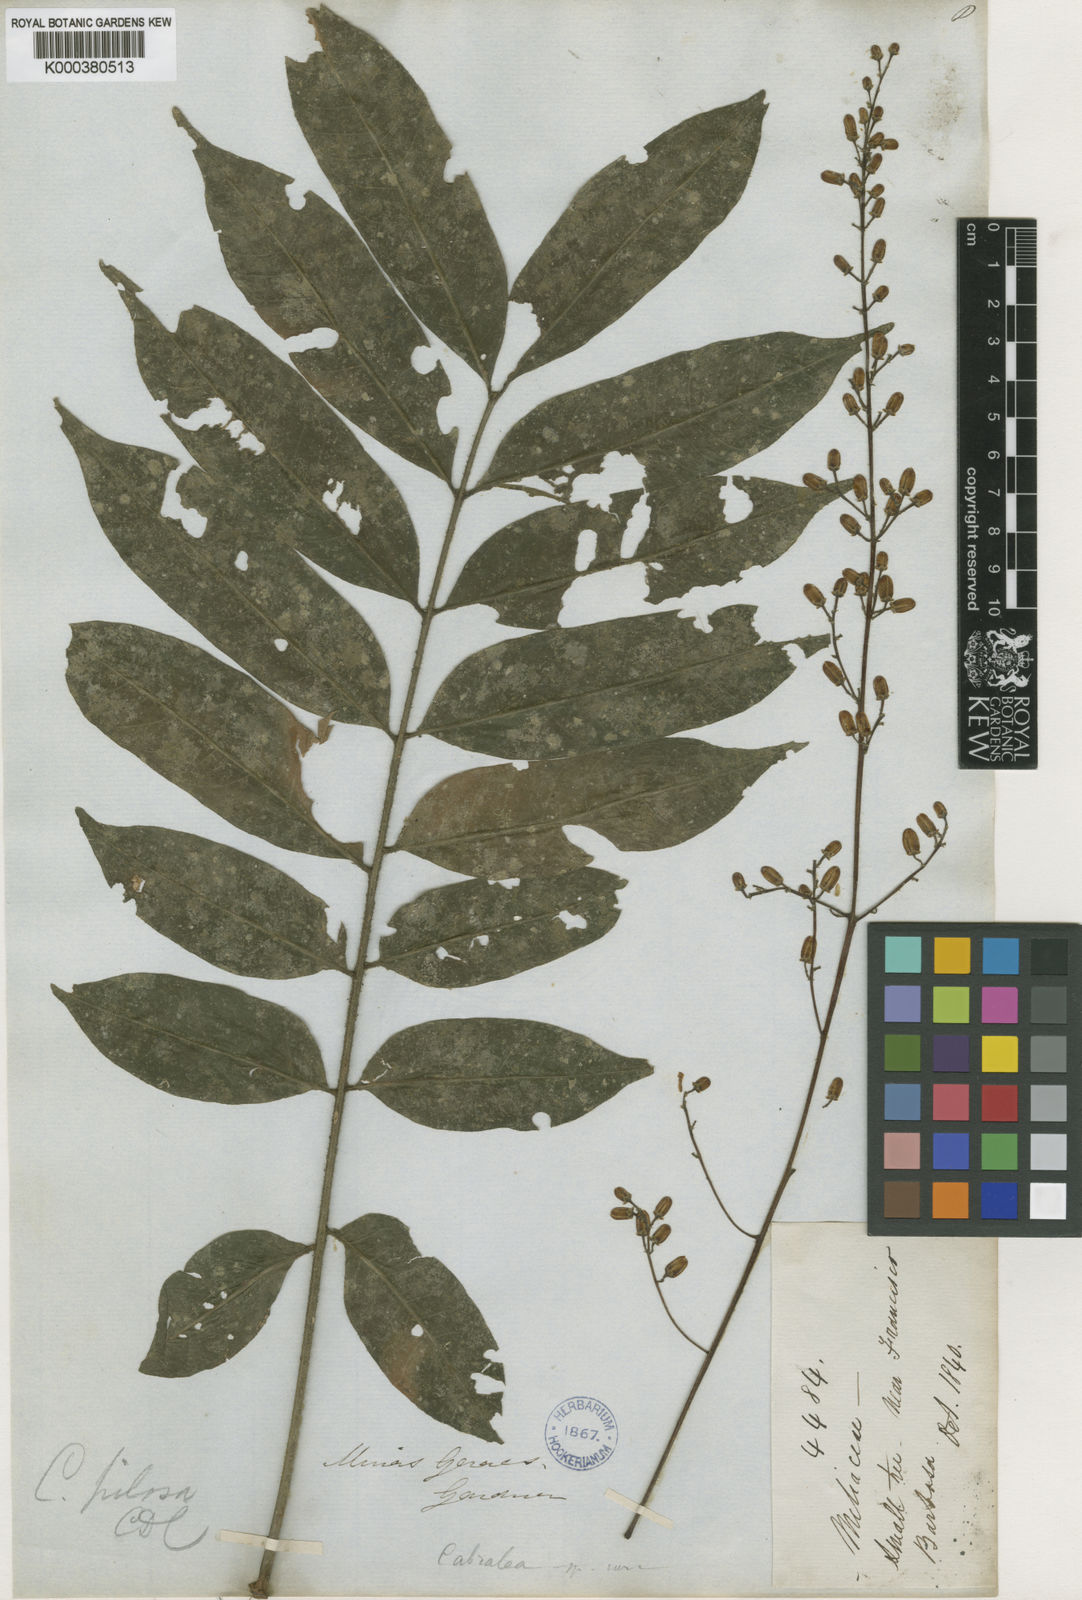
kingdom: Plantae
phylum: Tracheophyta
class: Magnoliopsida
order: Sapindales
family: Meliaceae
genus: Cabralea
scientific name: Cabralea canjerana
